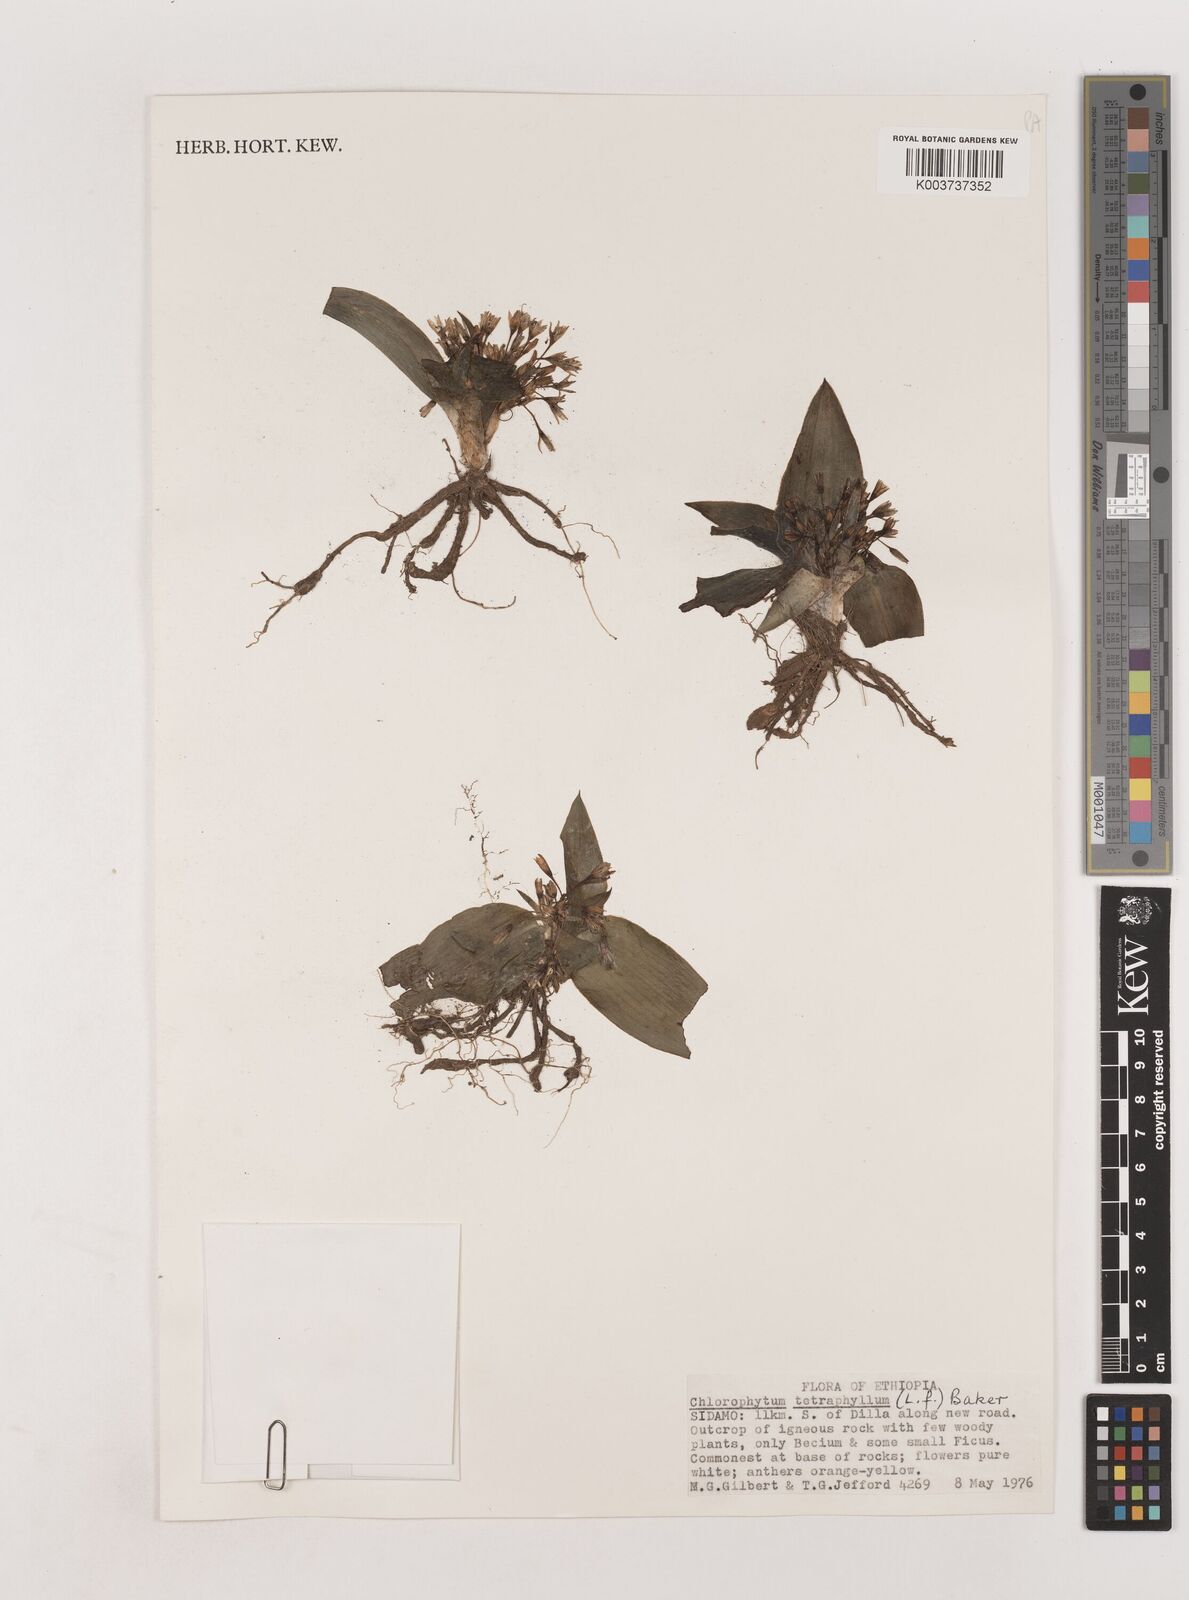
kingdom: Plantae
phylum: Tracheophyta
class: Liliopsida
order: Asparagales
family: Asparagaceae
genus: Chlorophytum
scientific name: Chlorophytum tetraphyllum
